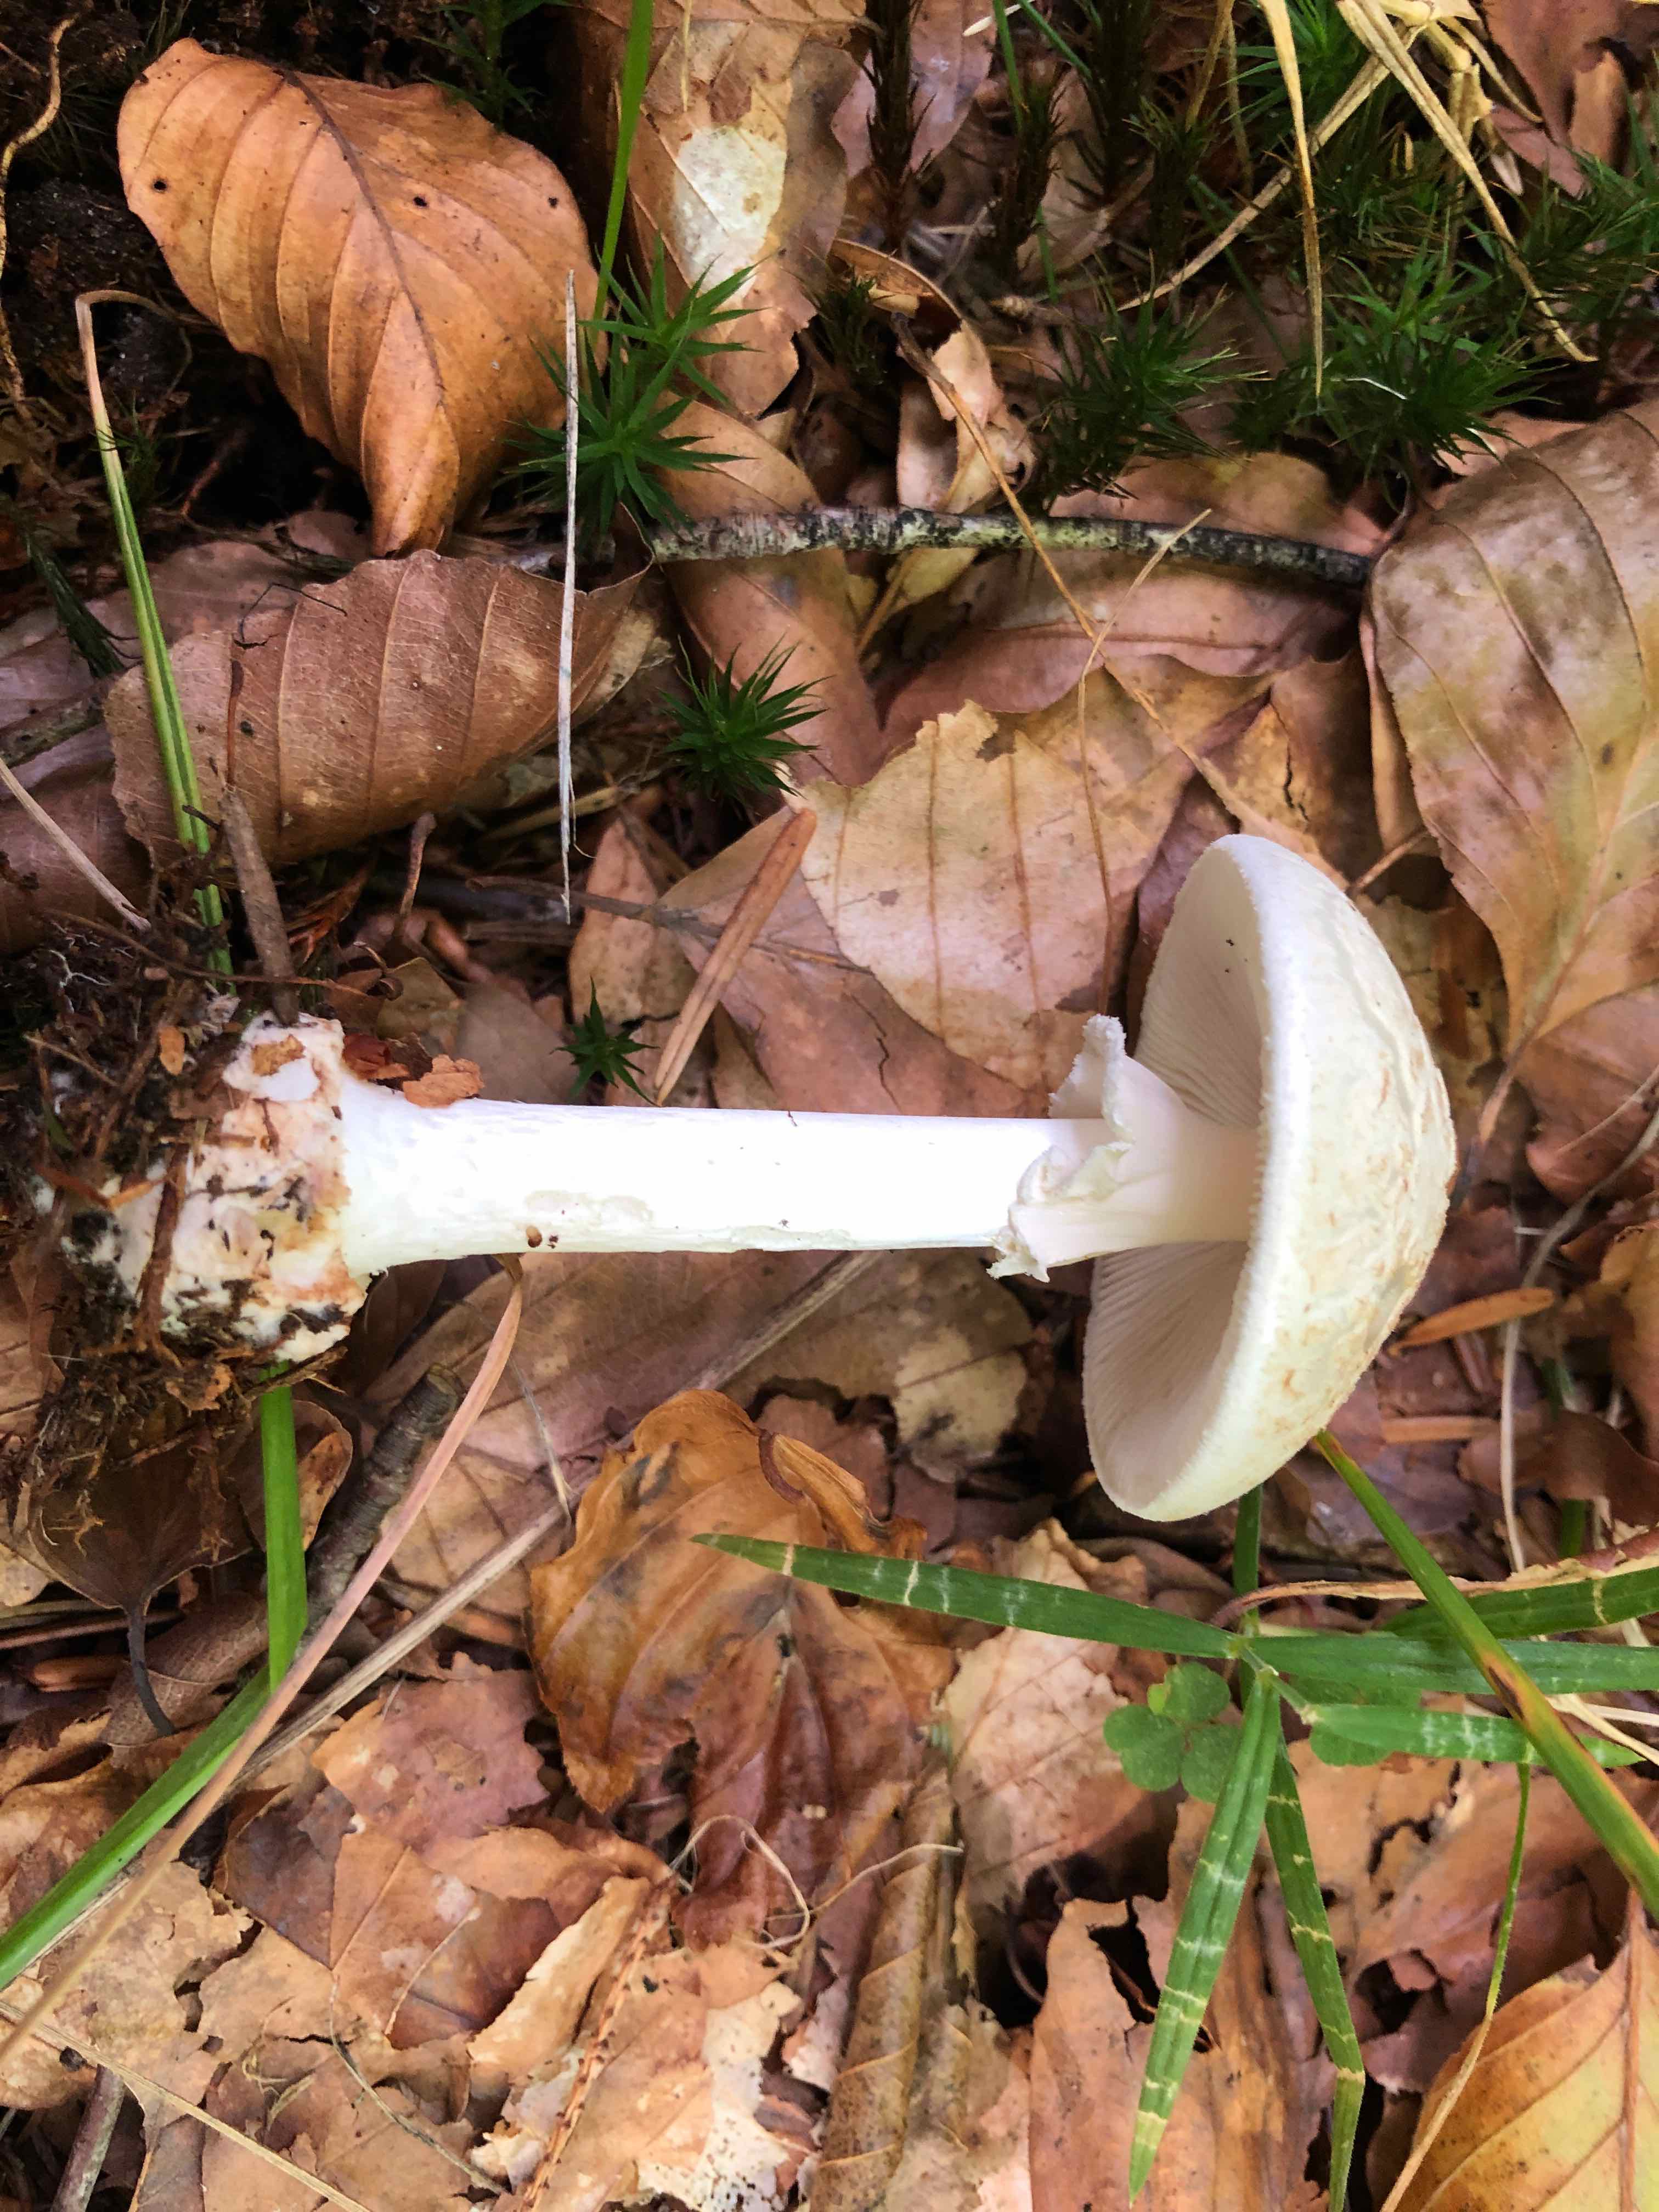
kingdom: Fungi
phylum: Basidiomycota
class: Agaricomycetes
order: Agaricales
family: Amanitaceae
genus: Amanita
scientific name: Amanita citrina
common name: kugleknoldet fluesvamp
